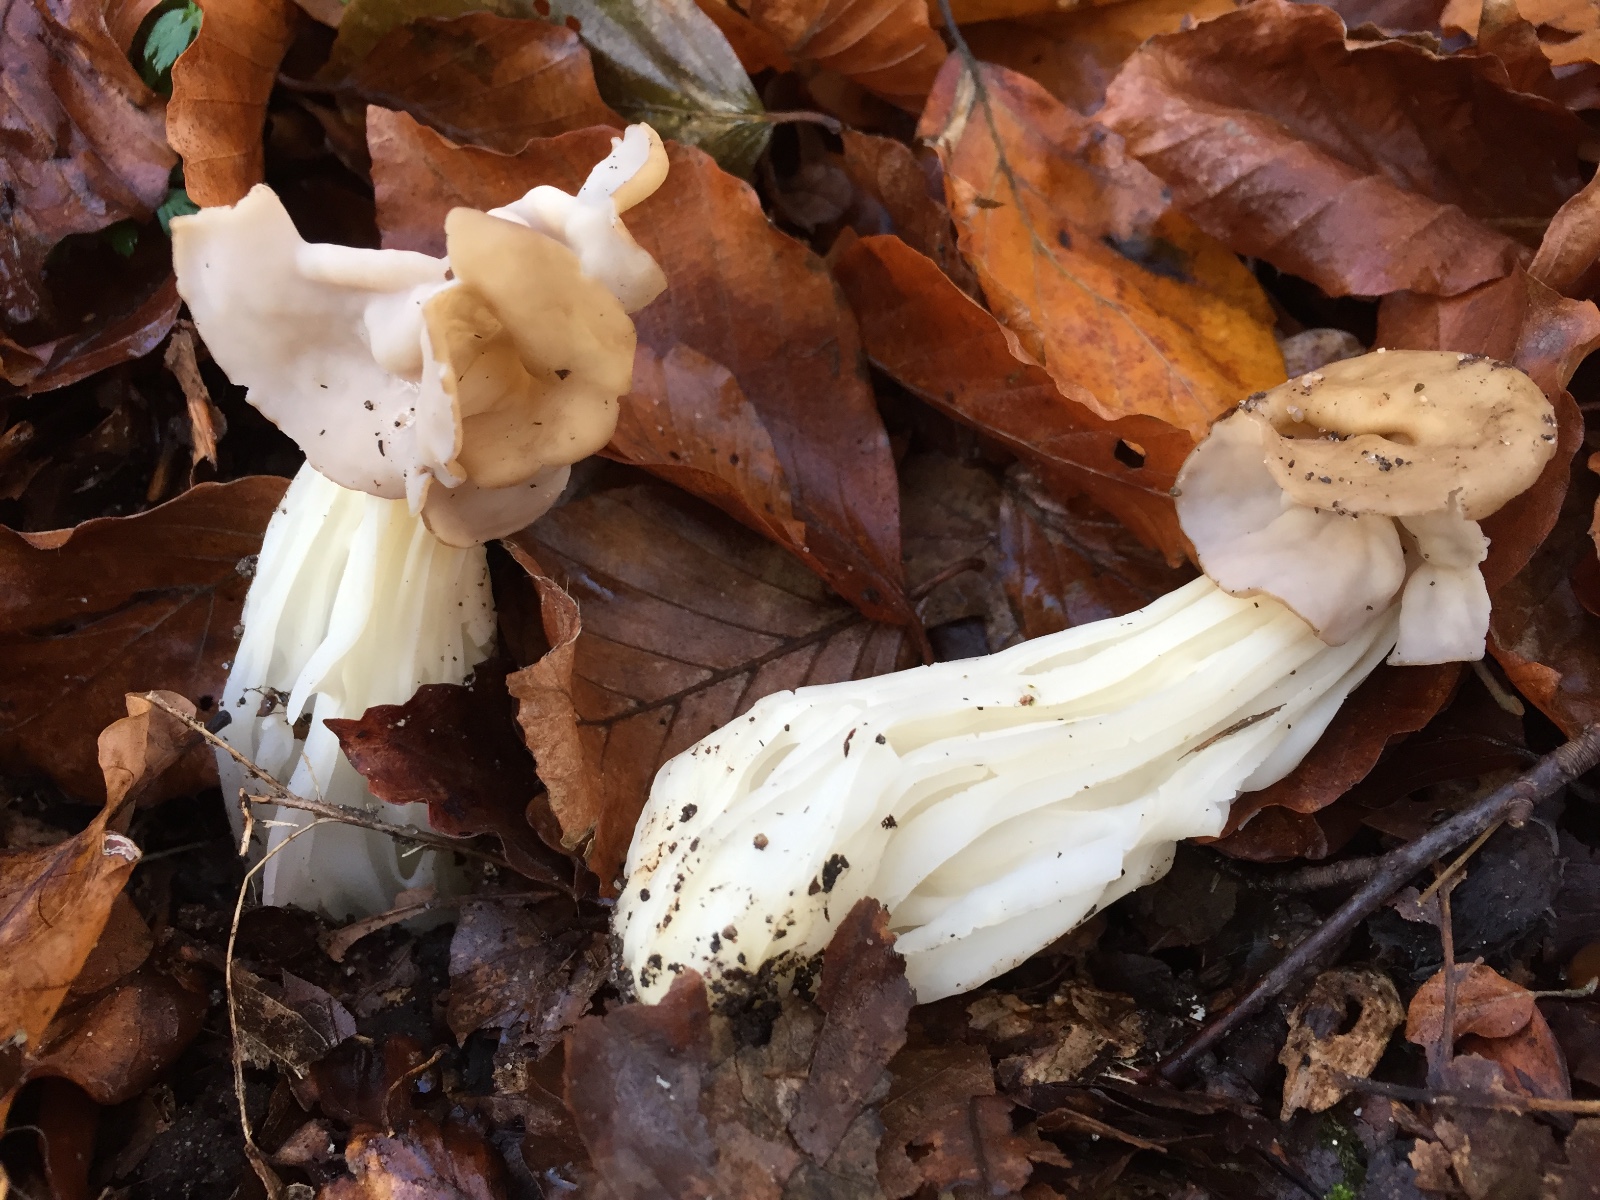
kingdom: Fungi
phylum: Ascomycota
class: Pezizomycetes
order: Pezizales
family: Helvellaceae
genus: Helvella
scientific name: Helvella crispa
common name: kruset foldhat
